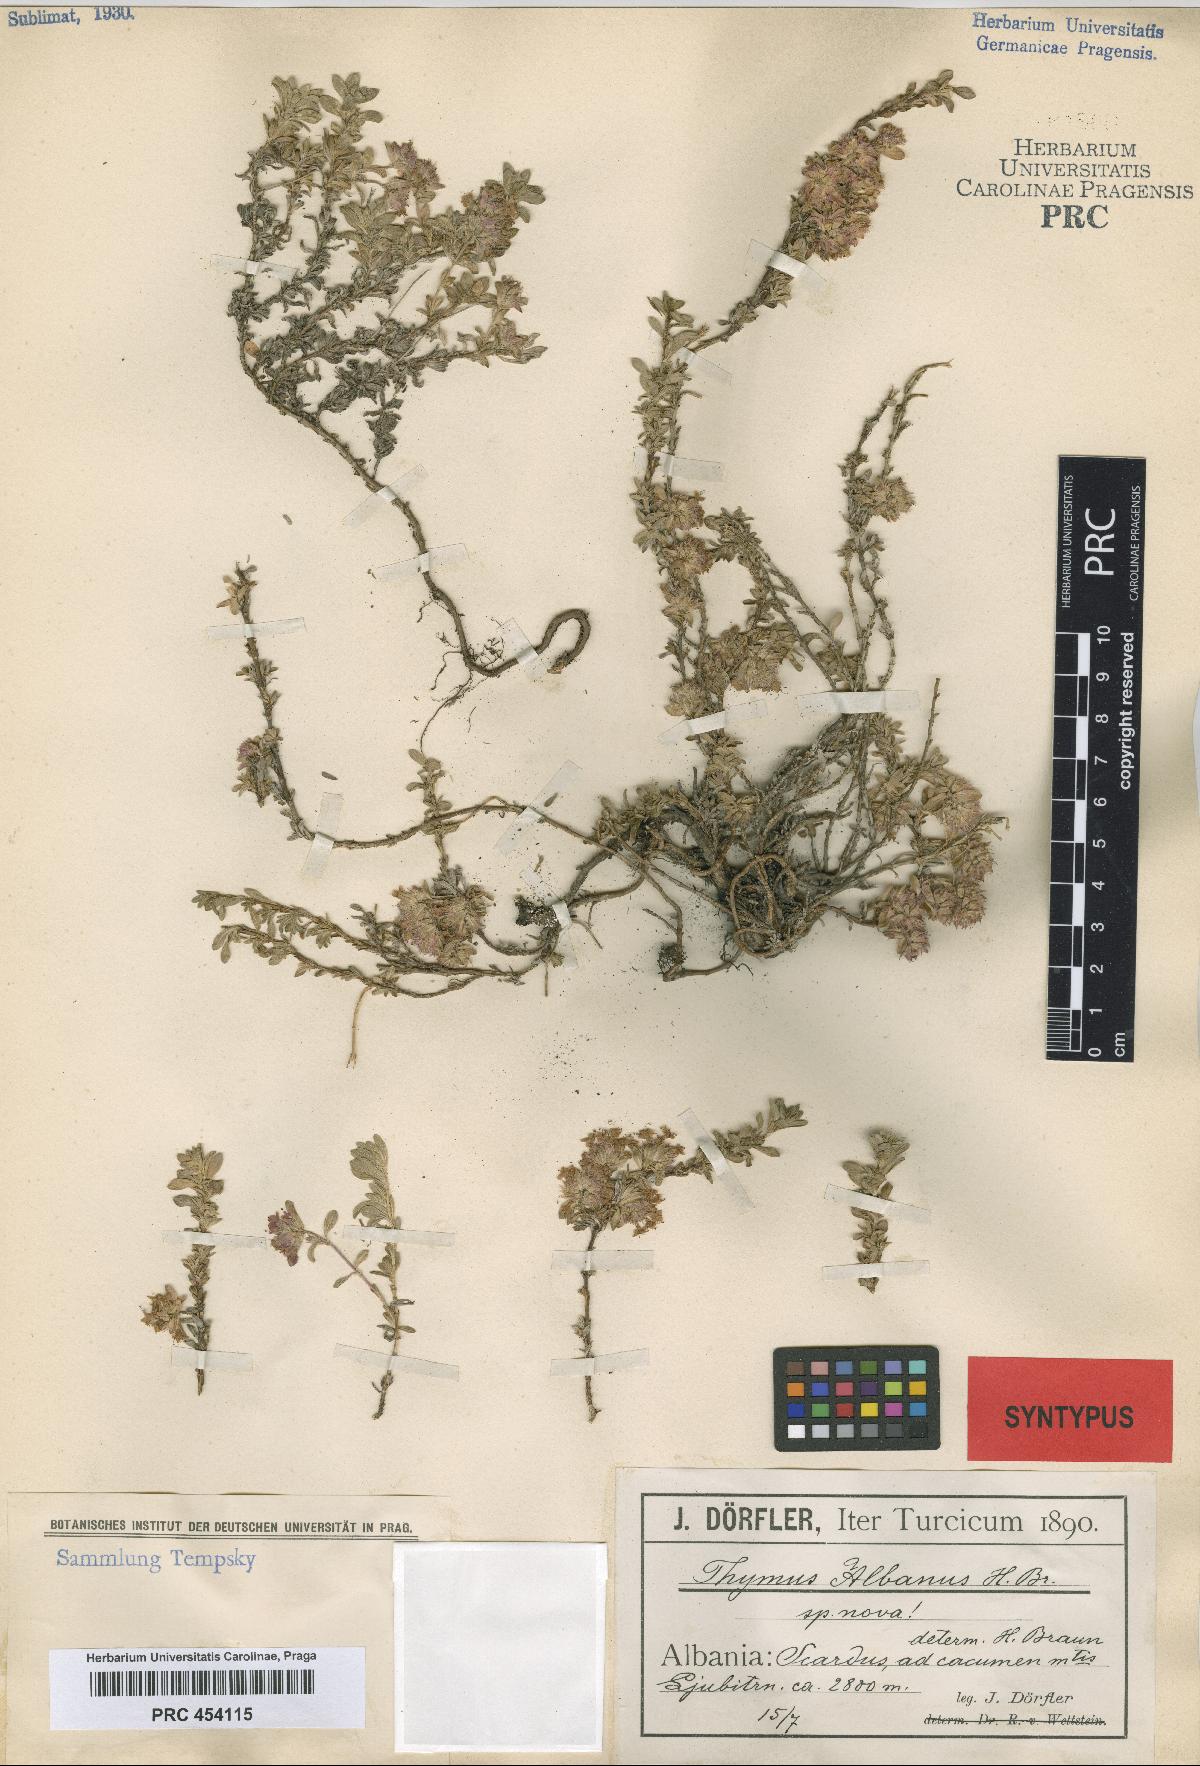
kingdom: Plantae
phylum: Tracheophyta
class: Magnoliopsida
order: Lamiales
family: Lamiaceae
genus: Thymus
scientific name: Thymus albanus
